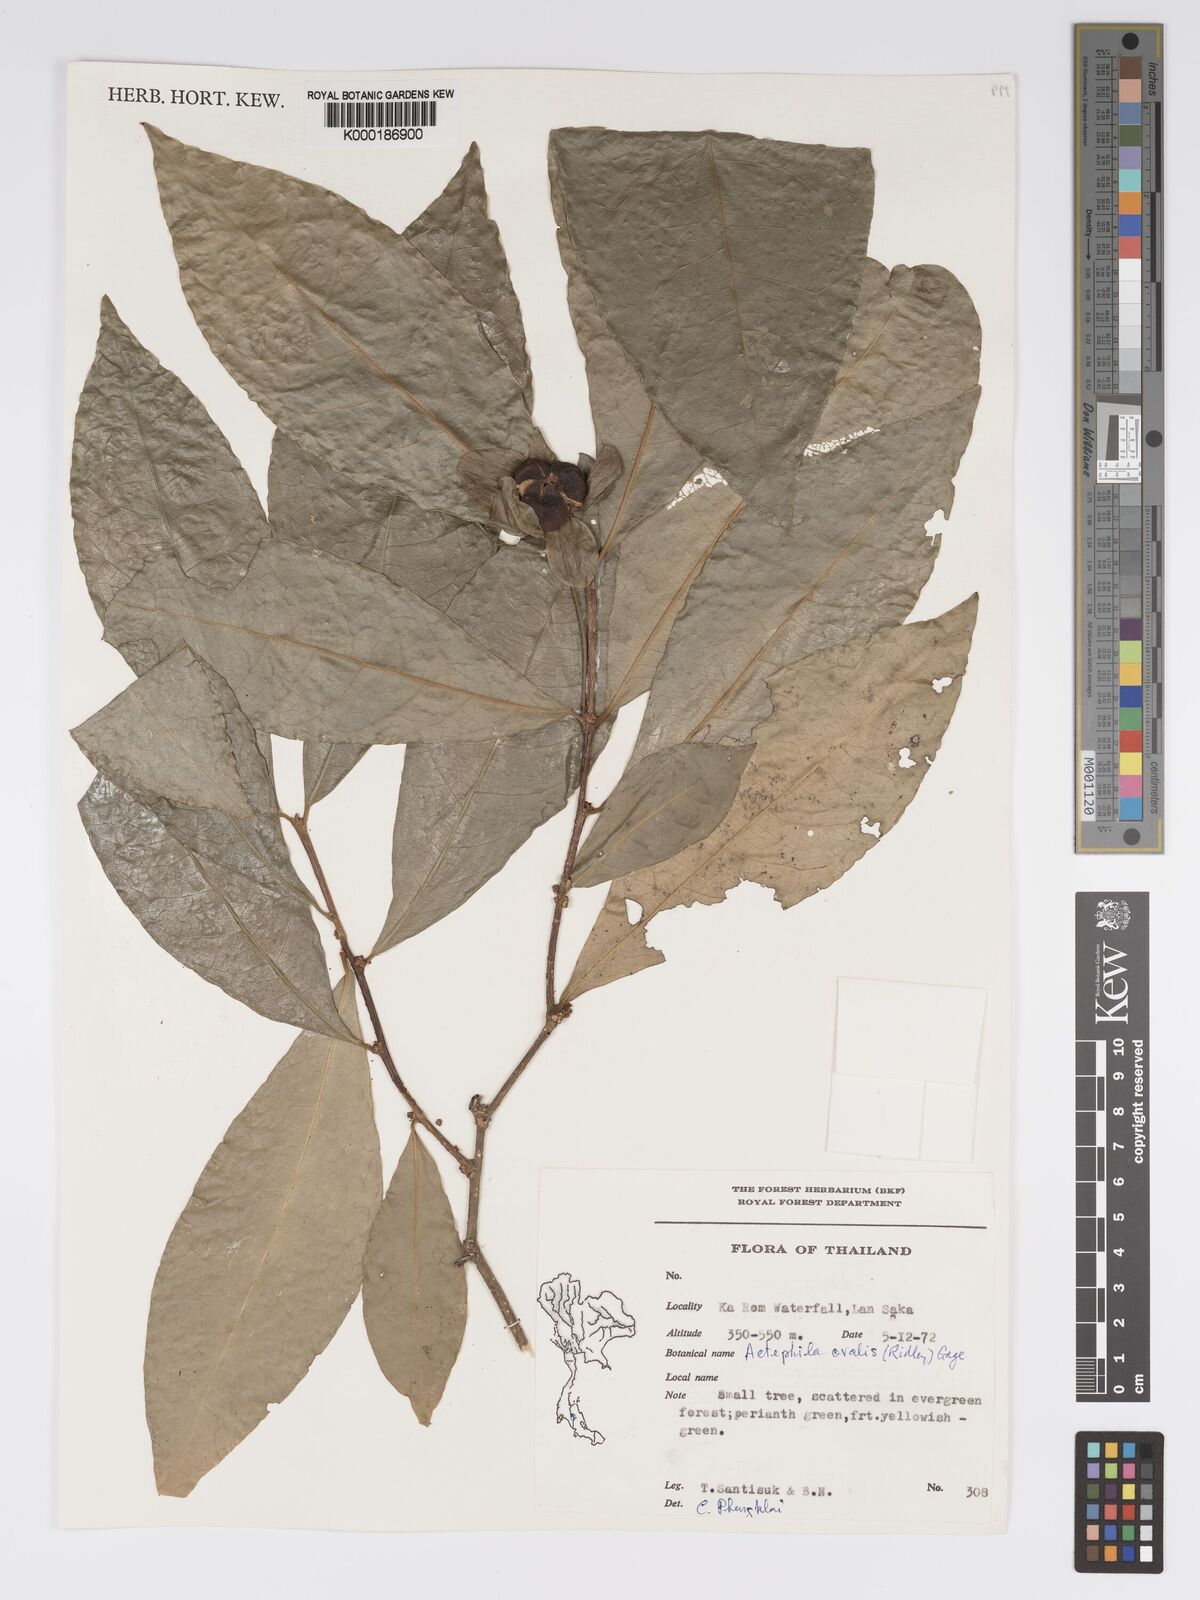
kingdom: Plantae
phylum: Tracheophyta
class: Magnoliopsida
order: Malpighiales
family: Phyllanthaceae
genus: Actephila
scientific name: Actephila ovalis
